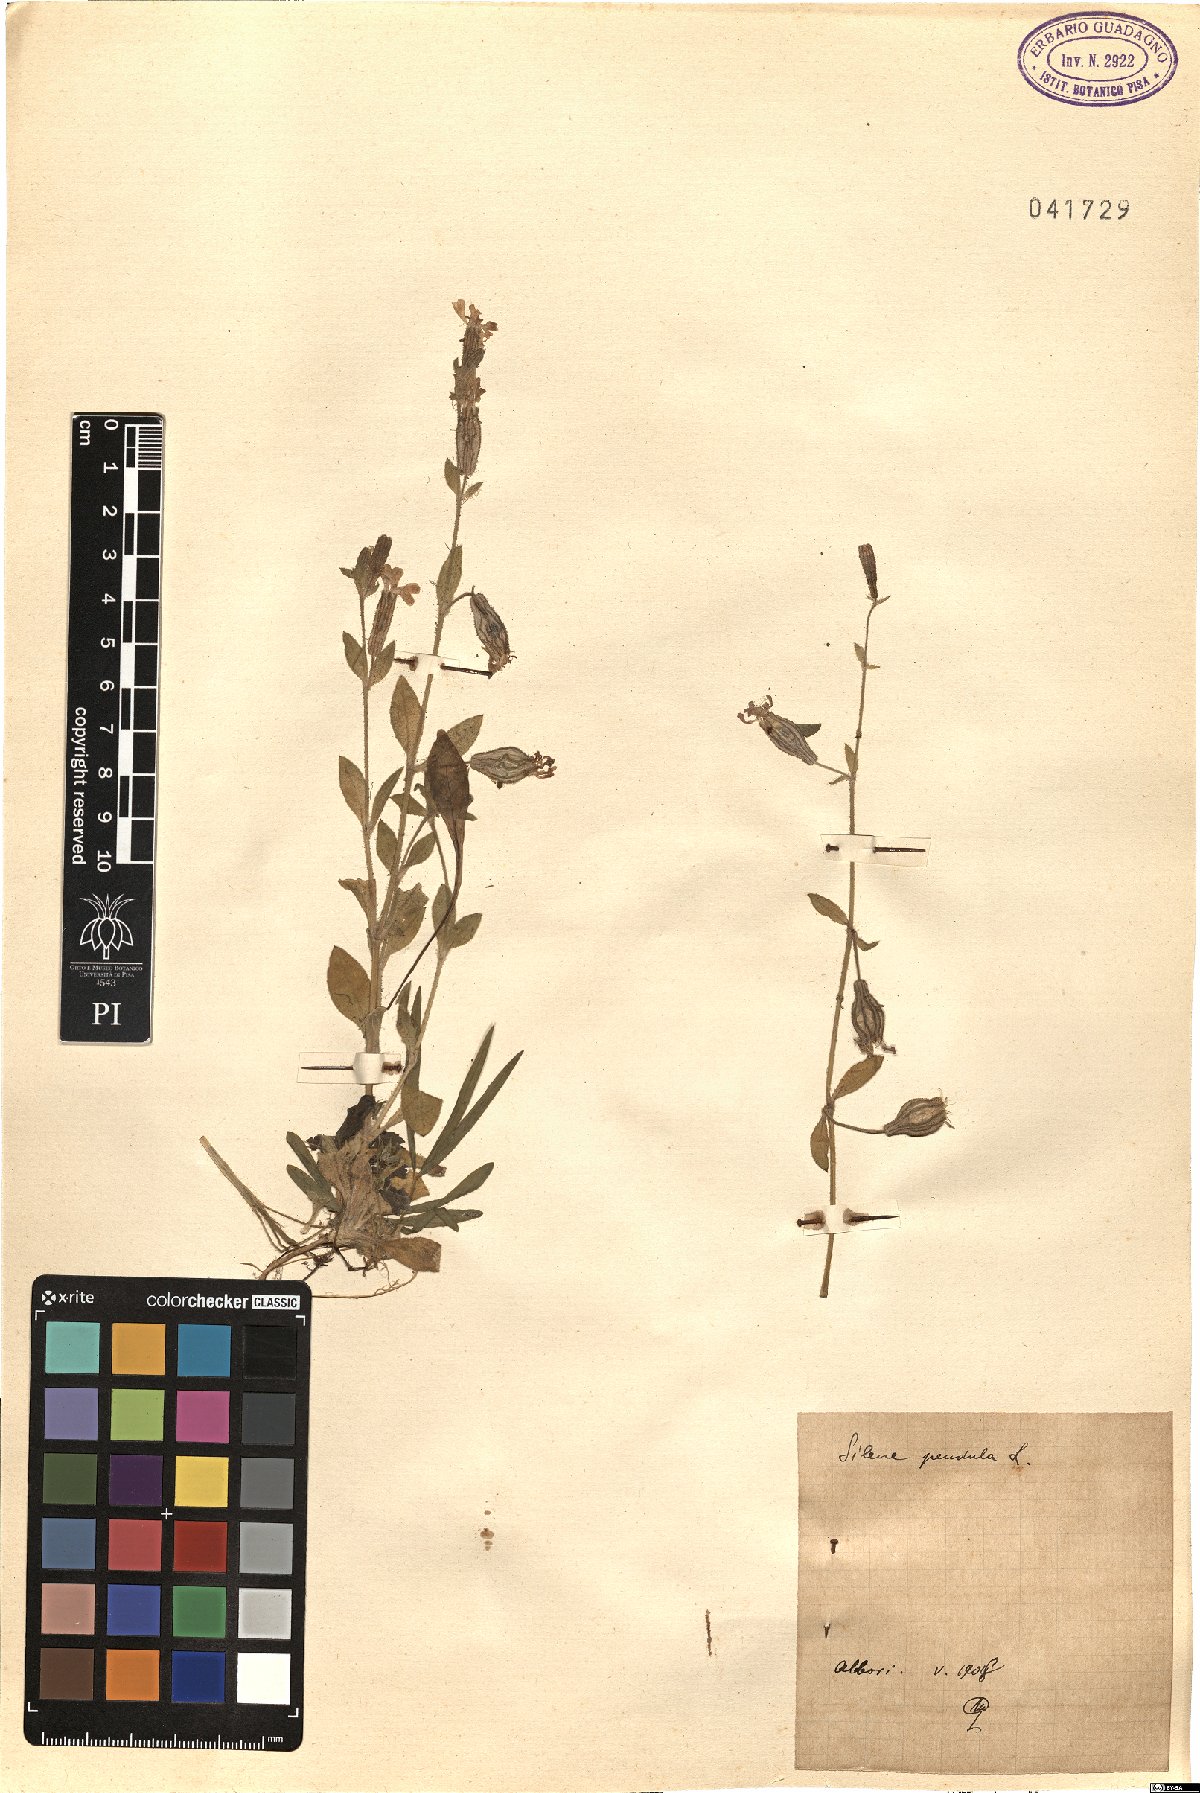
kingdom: Plantae
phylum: Tracheophyta
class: Magnoliopsida
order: Caryophyllales
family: Caryophyllaceae
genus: Silene
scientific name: Silene pendula
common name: Nodding catchfly
